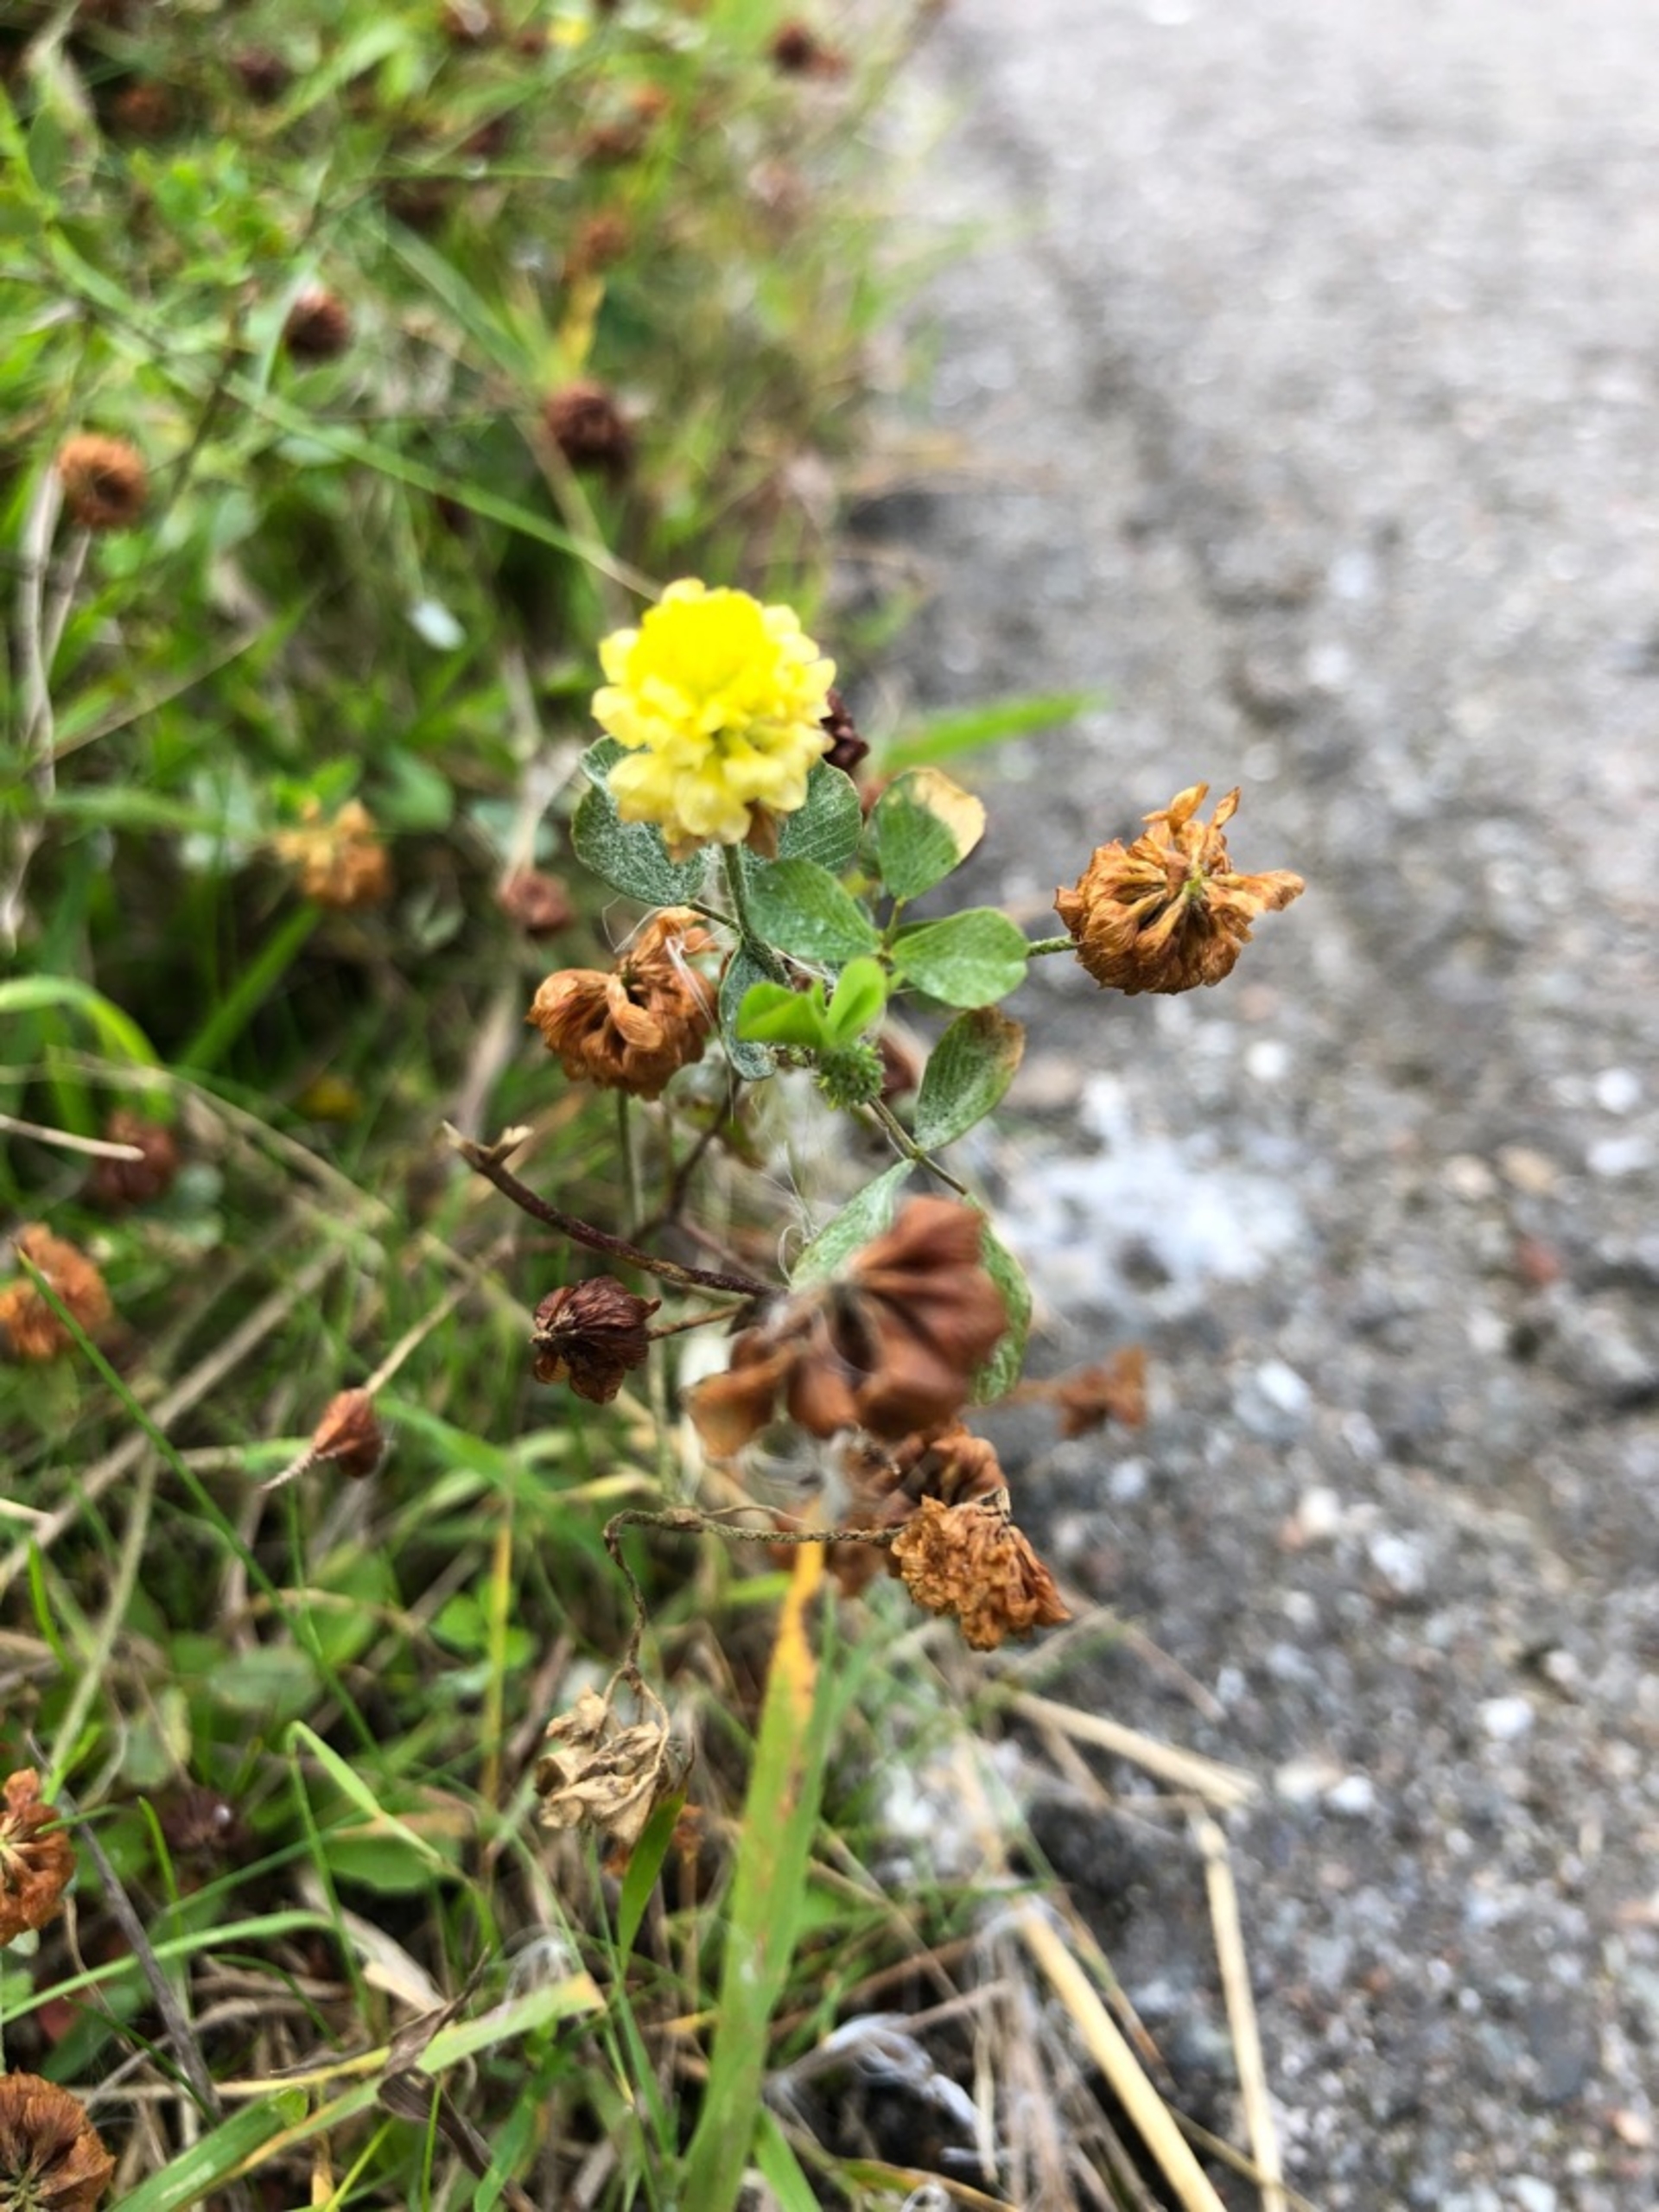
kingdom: Plantae
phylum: Tracheophyta
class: Magnoliopsida
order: Fabales
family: Fabaceae
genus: Trifolium
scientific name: Trifolium campestre
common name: Gul kløver
